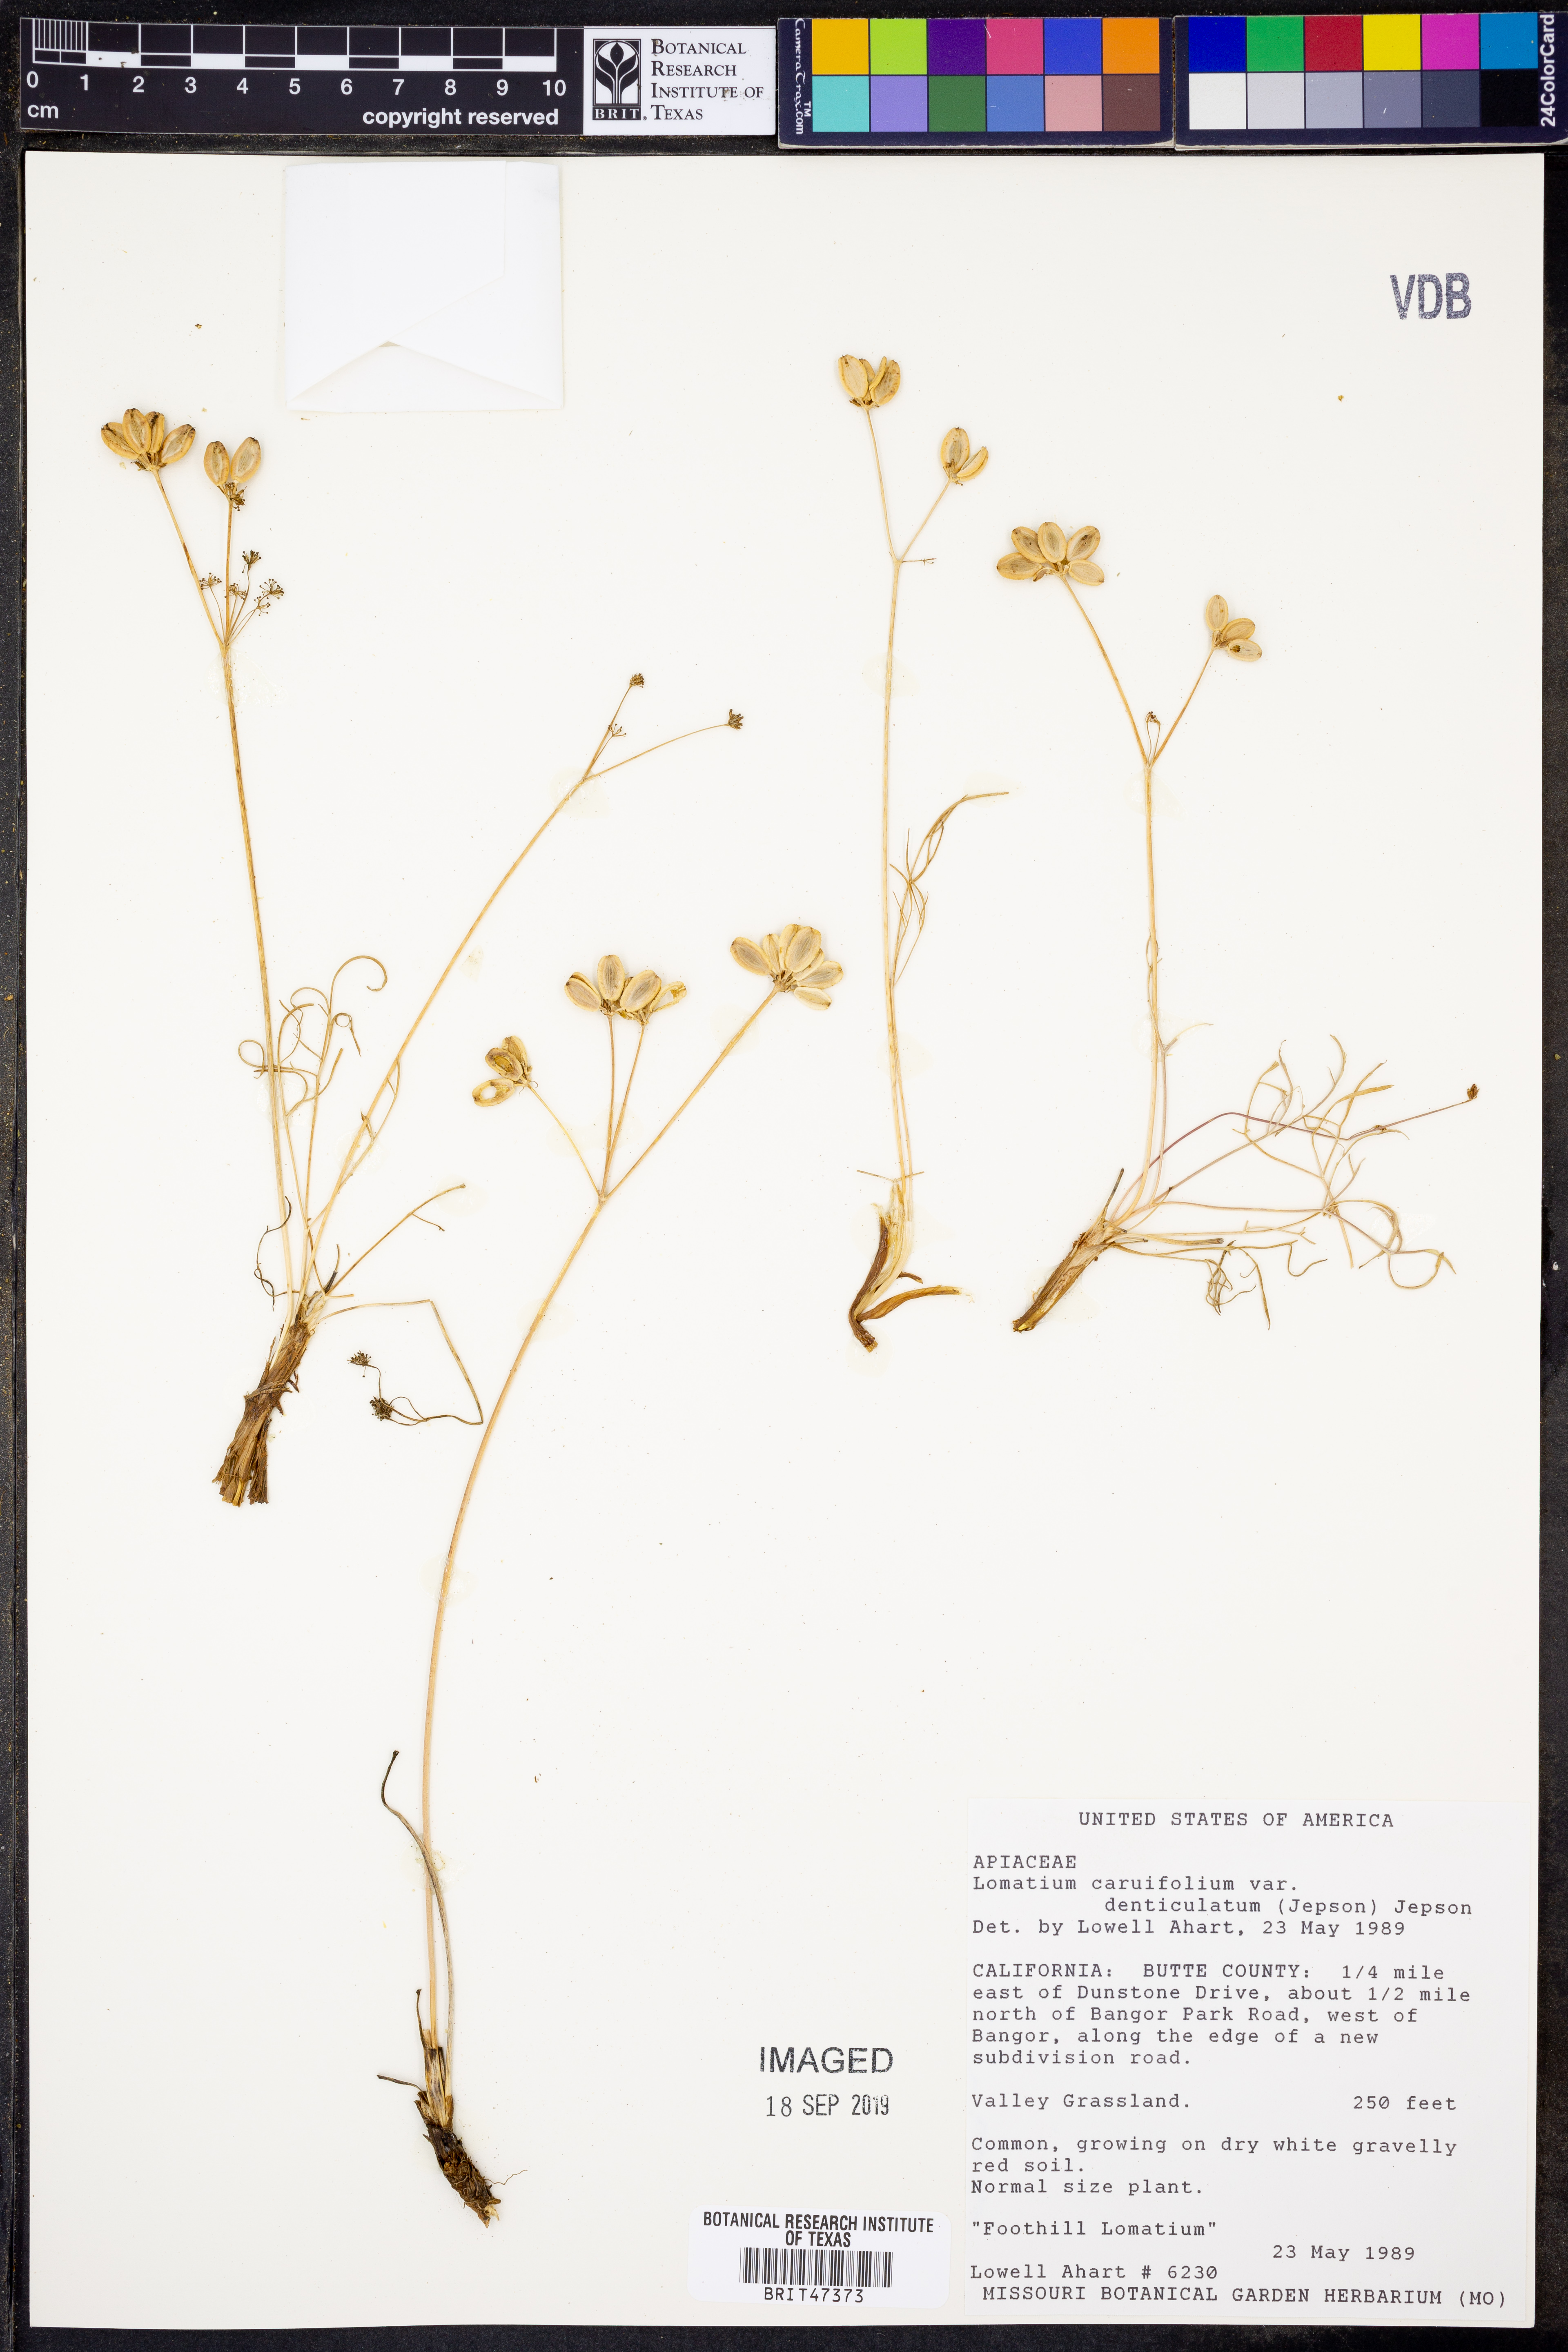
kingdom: Plantae
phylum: Tracheophyta
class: Magnoliopsida
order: Apiales
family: Apiaceae
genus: Lomatium
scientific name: Lomatium caruifolium
